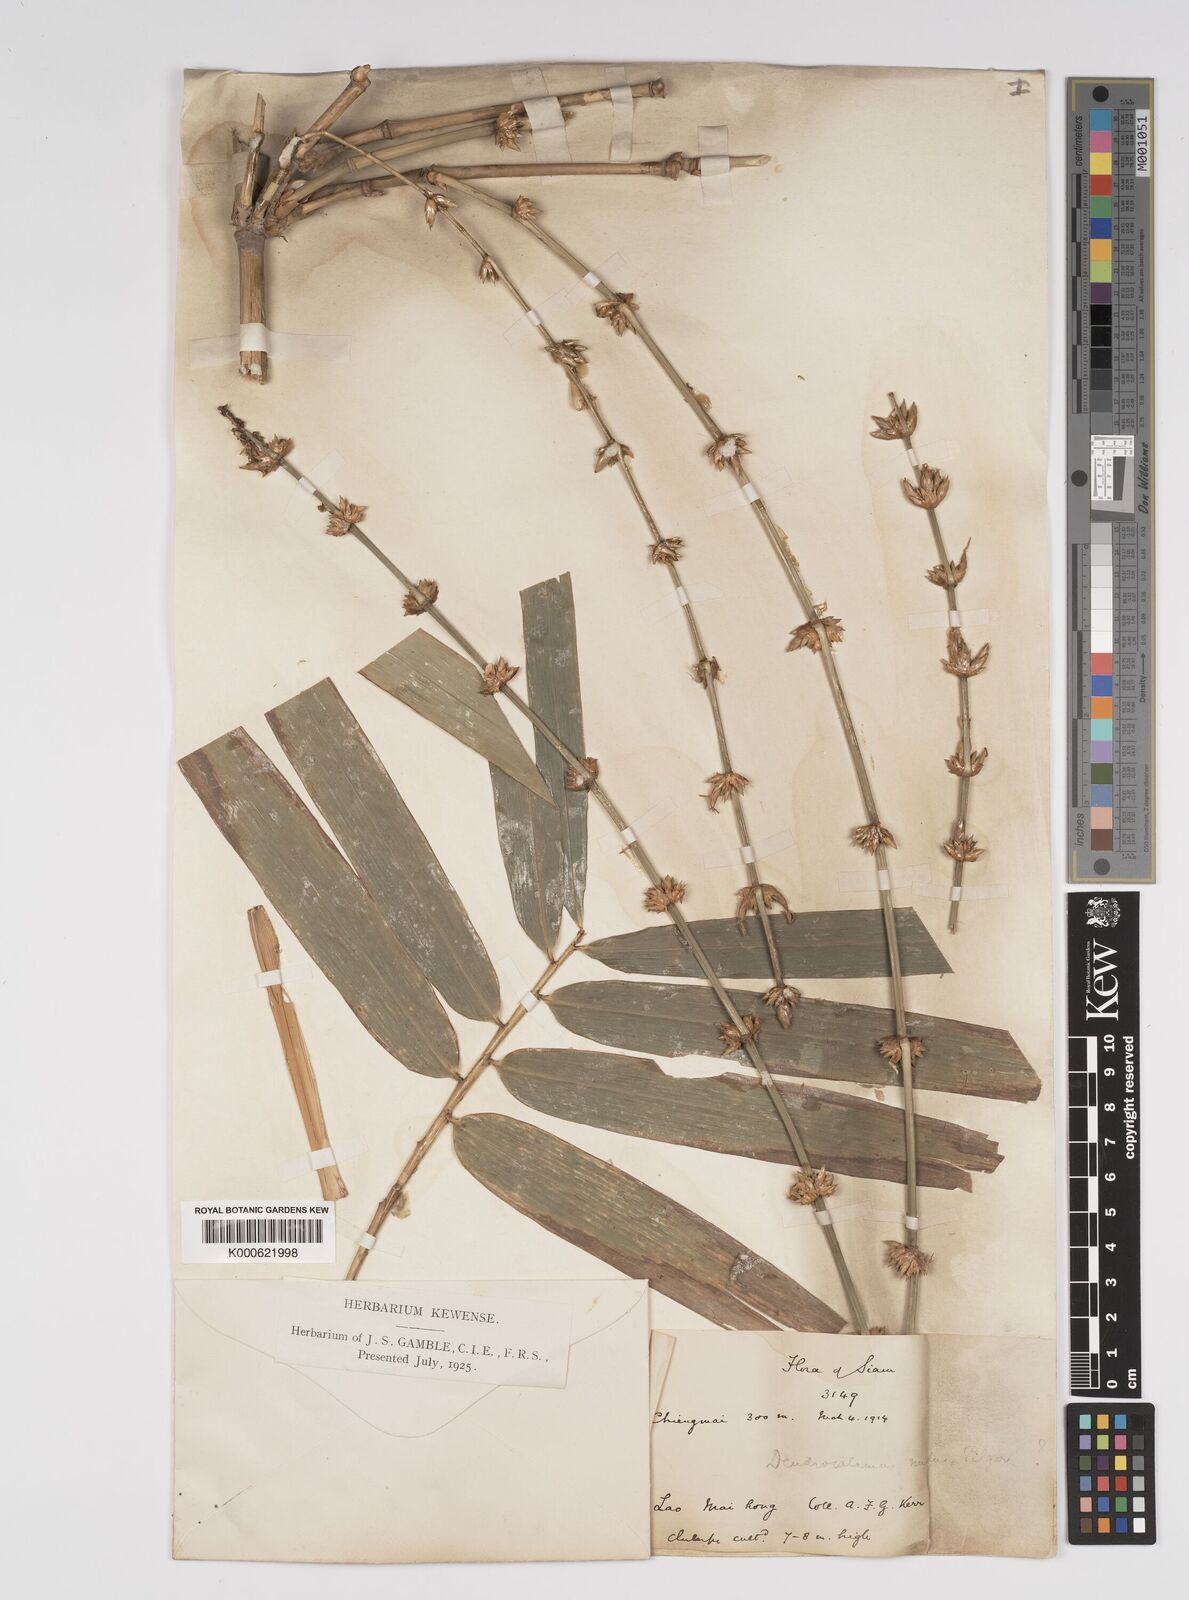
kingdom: Plantae
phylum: Tracheophyta
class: Liliopsida
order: Poales
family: Poaceae
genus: Bambusa
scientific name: Bambusa
